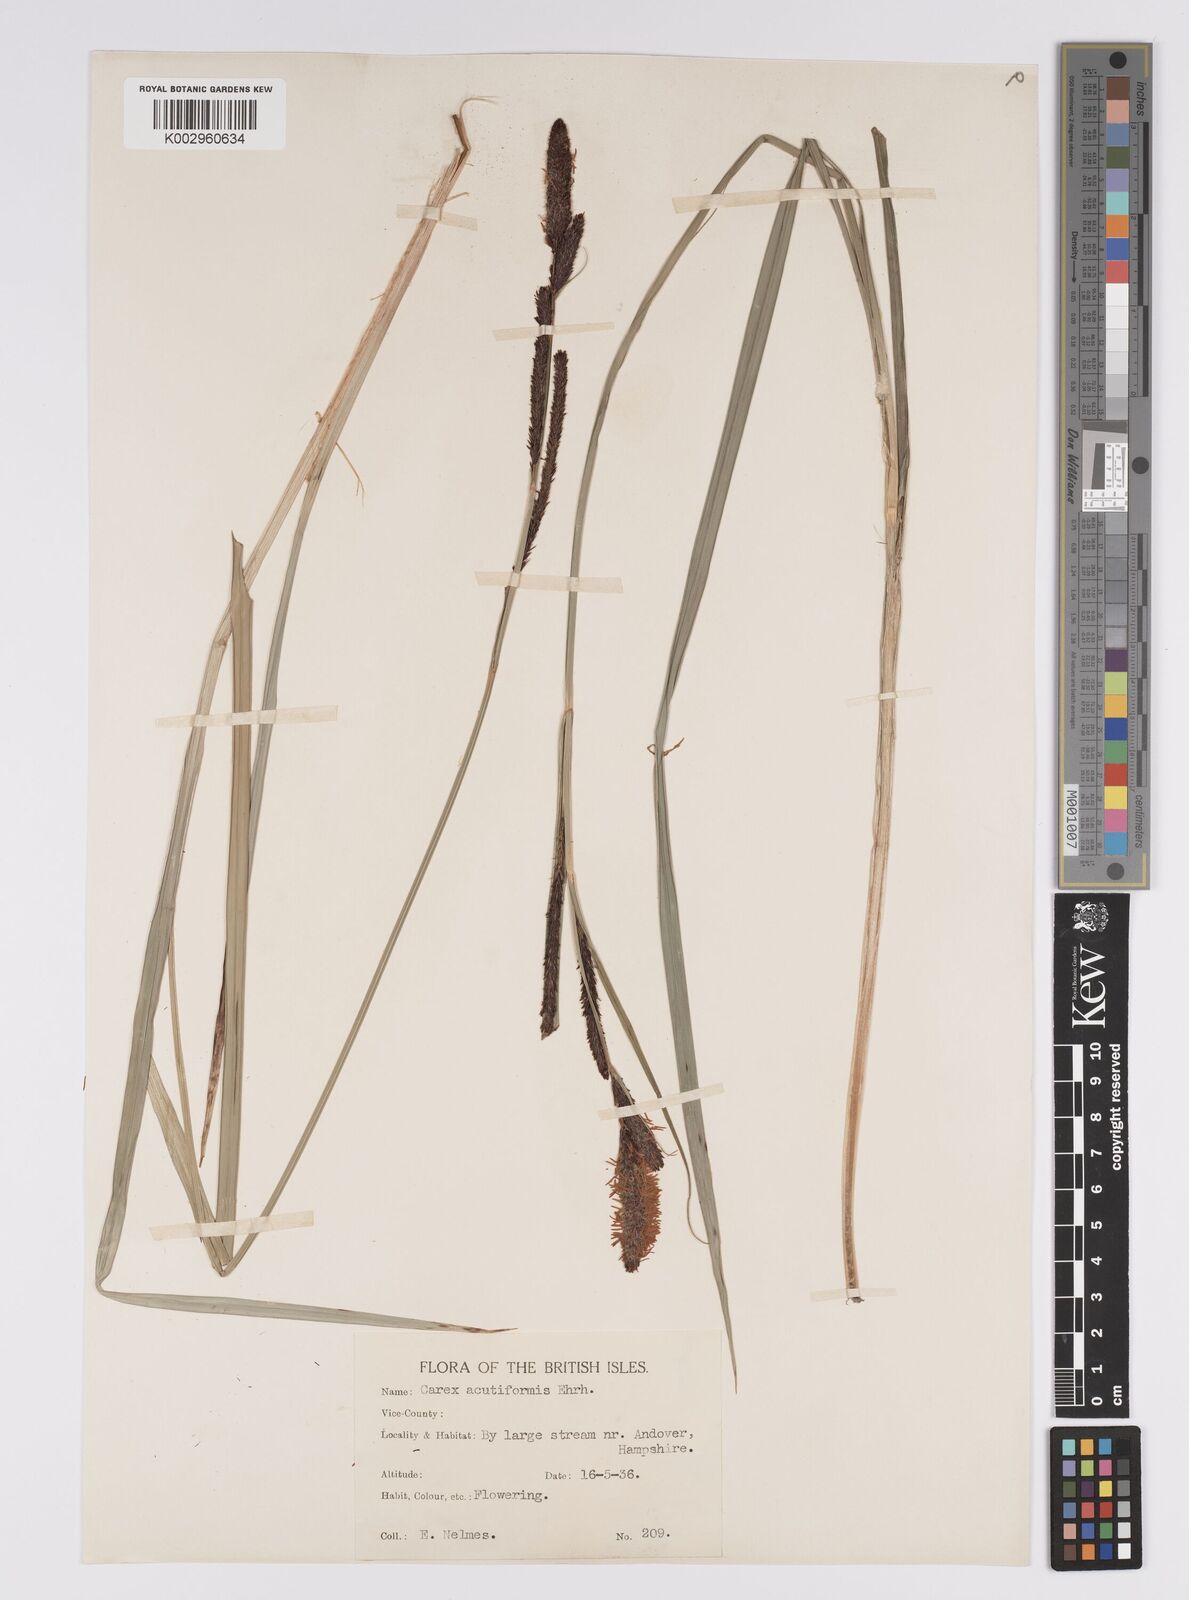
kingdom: Plantae
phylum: Tracheophyta
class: Liliopsida
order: Poales
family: Cyperaceae
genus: Carex
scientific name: Carex acutiformis
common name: Lesser pond-sedge
